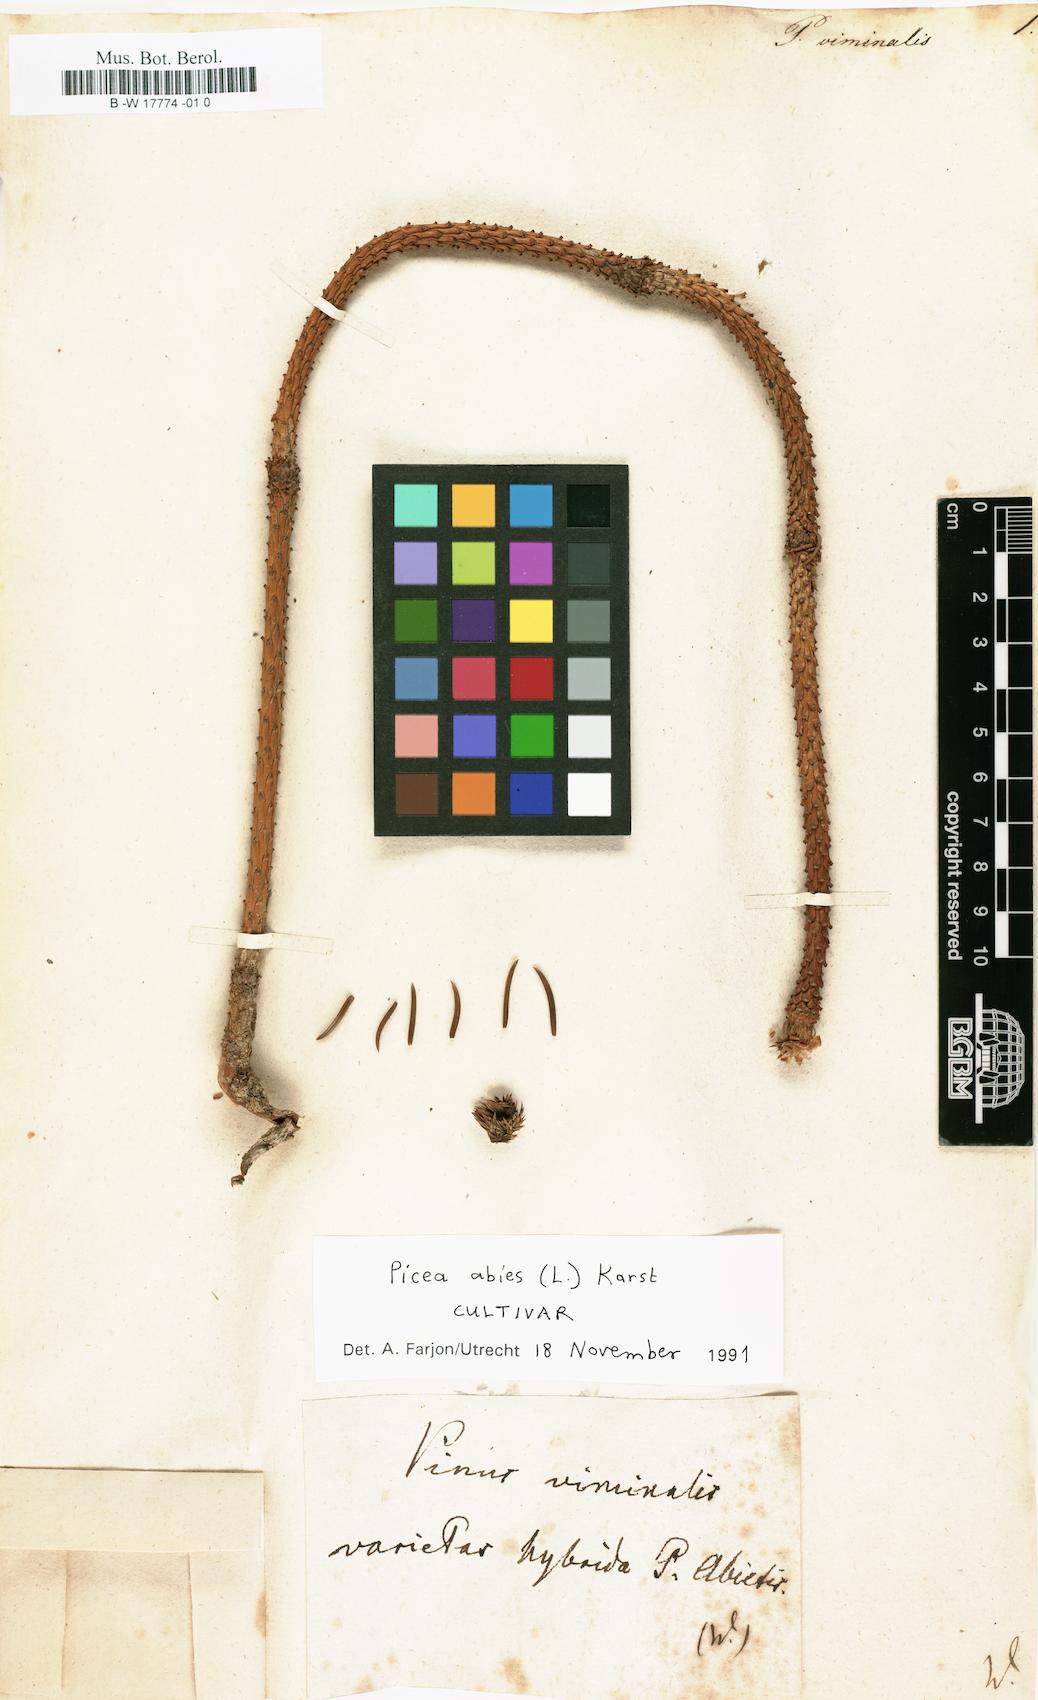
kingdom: Plantae
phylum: Tracheophyta
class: Pinopsida
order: Pinales
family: Pinaceae
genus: Picea
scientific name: Picea abies
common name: Norway spruce
